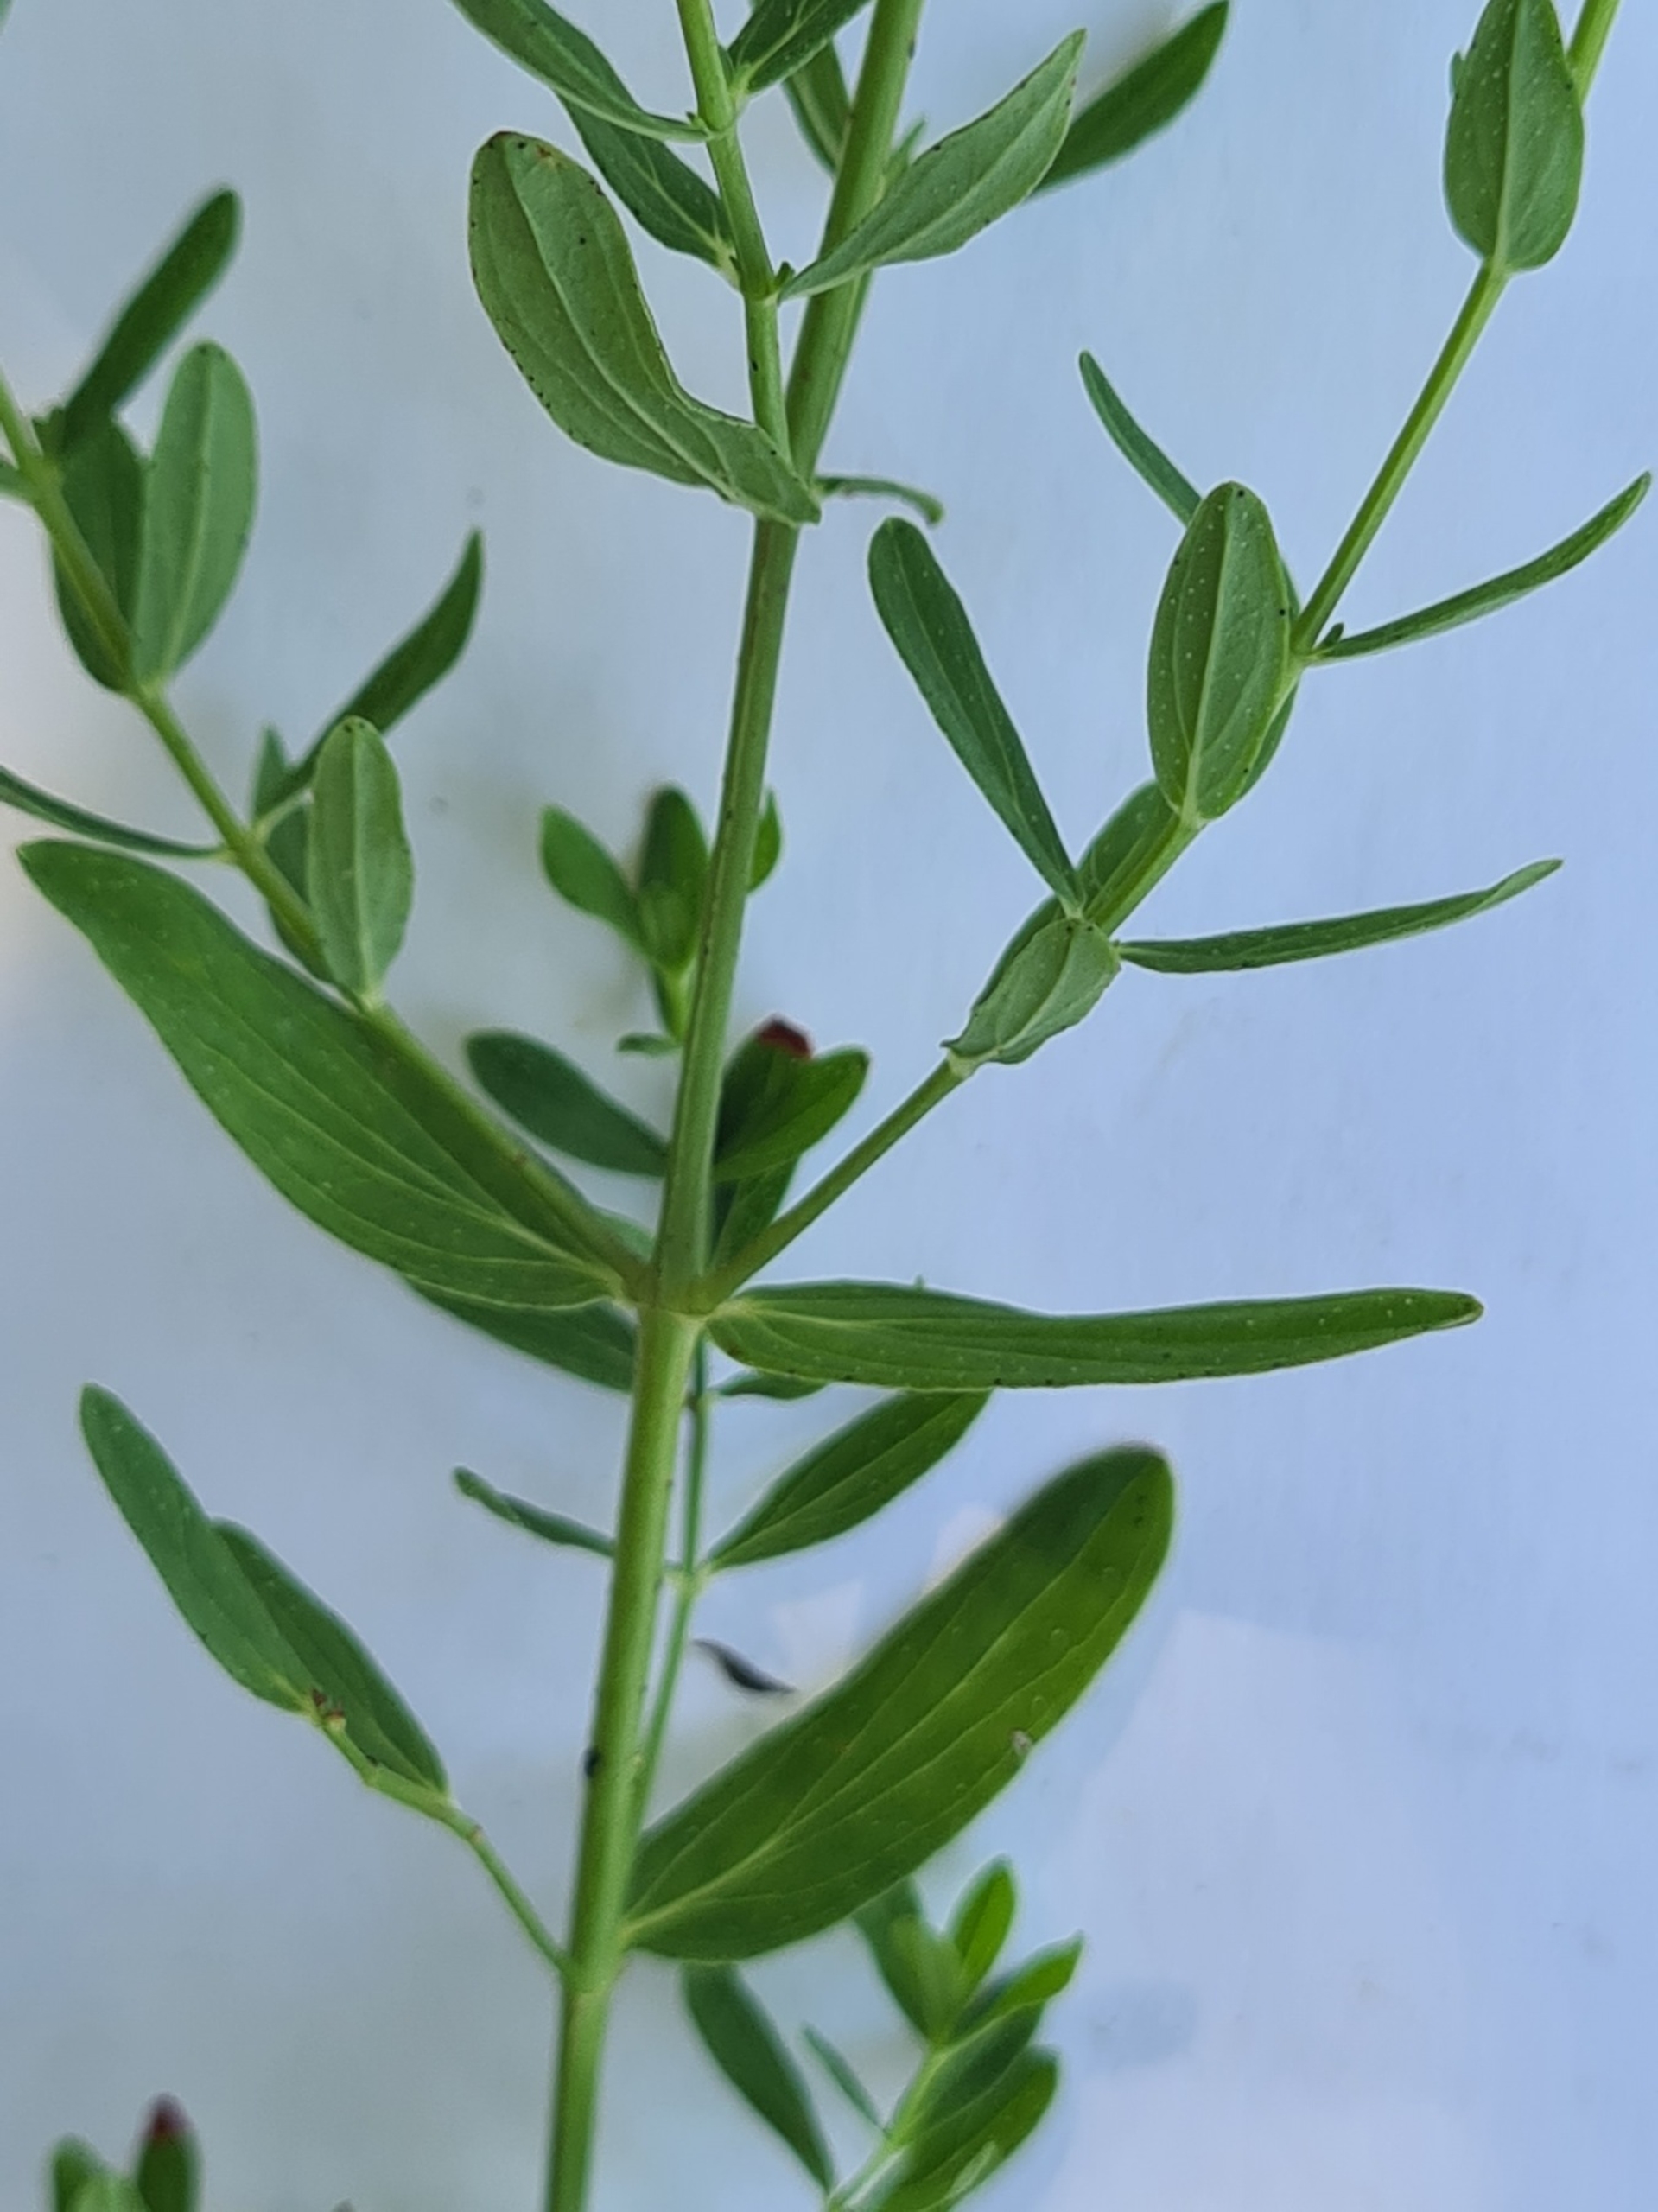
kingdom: Plantae
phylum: Tracheophyta
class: Magnoliopsida
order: Malpighiales
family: Hypericaceae
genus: Hypericum
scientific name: Hypericum perforatum
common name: Prikbladet perikon
